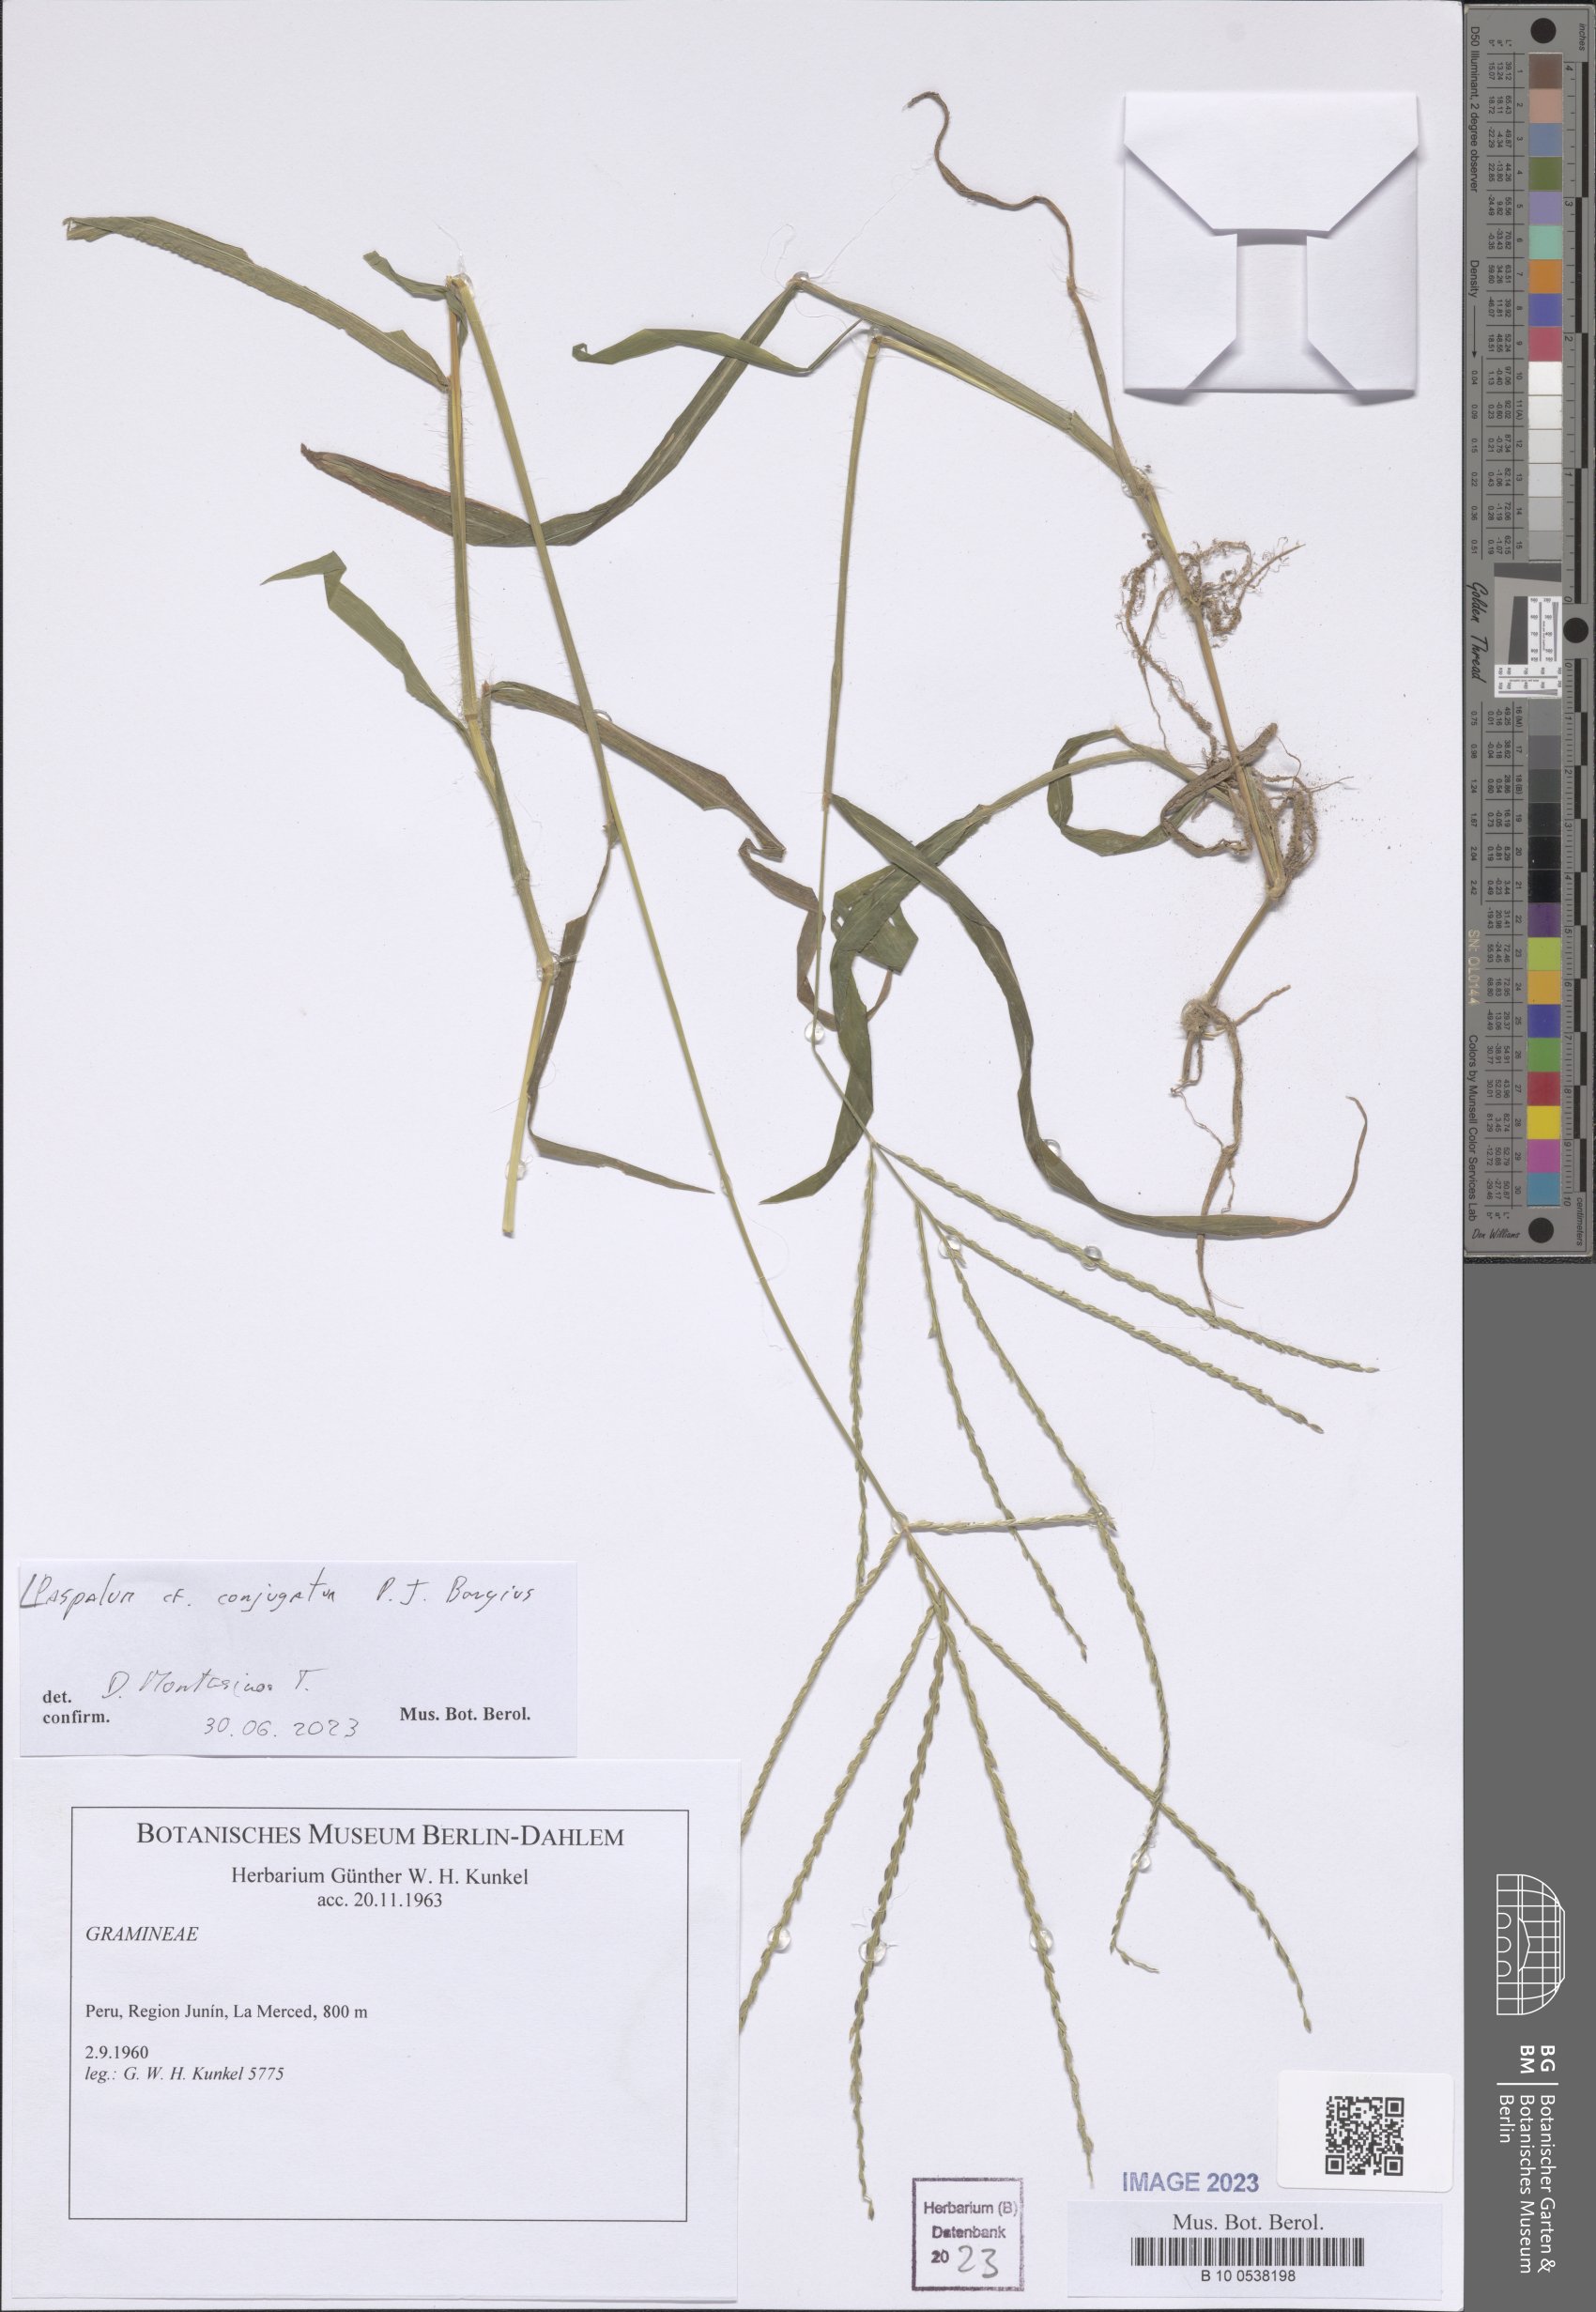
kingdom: Plantae
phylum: Tracheophyta
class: Liliopsida
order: Poales
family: Poaceae
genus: Paspalum
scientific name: Paspalum conjugatum
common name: Hilograss
